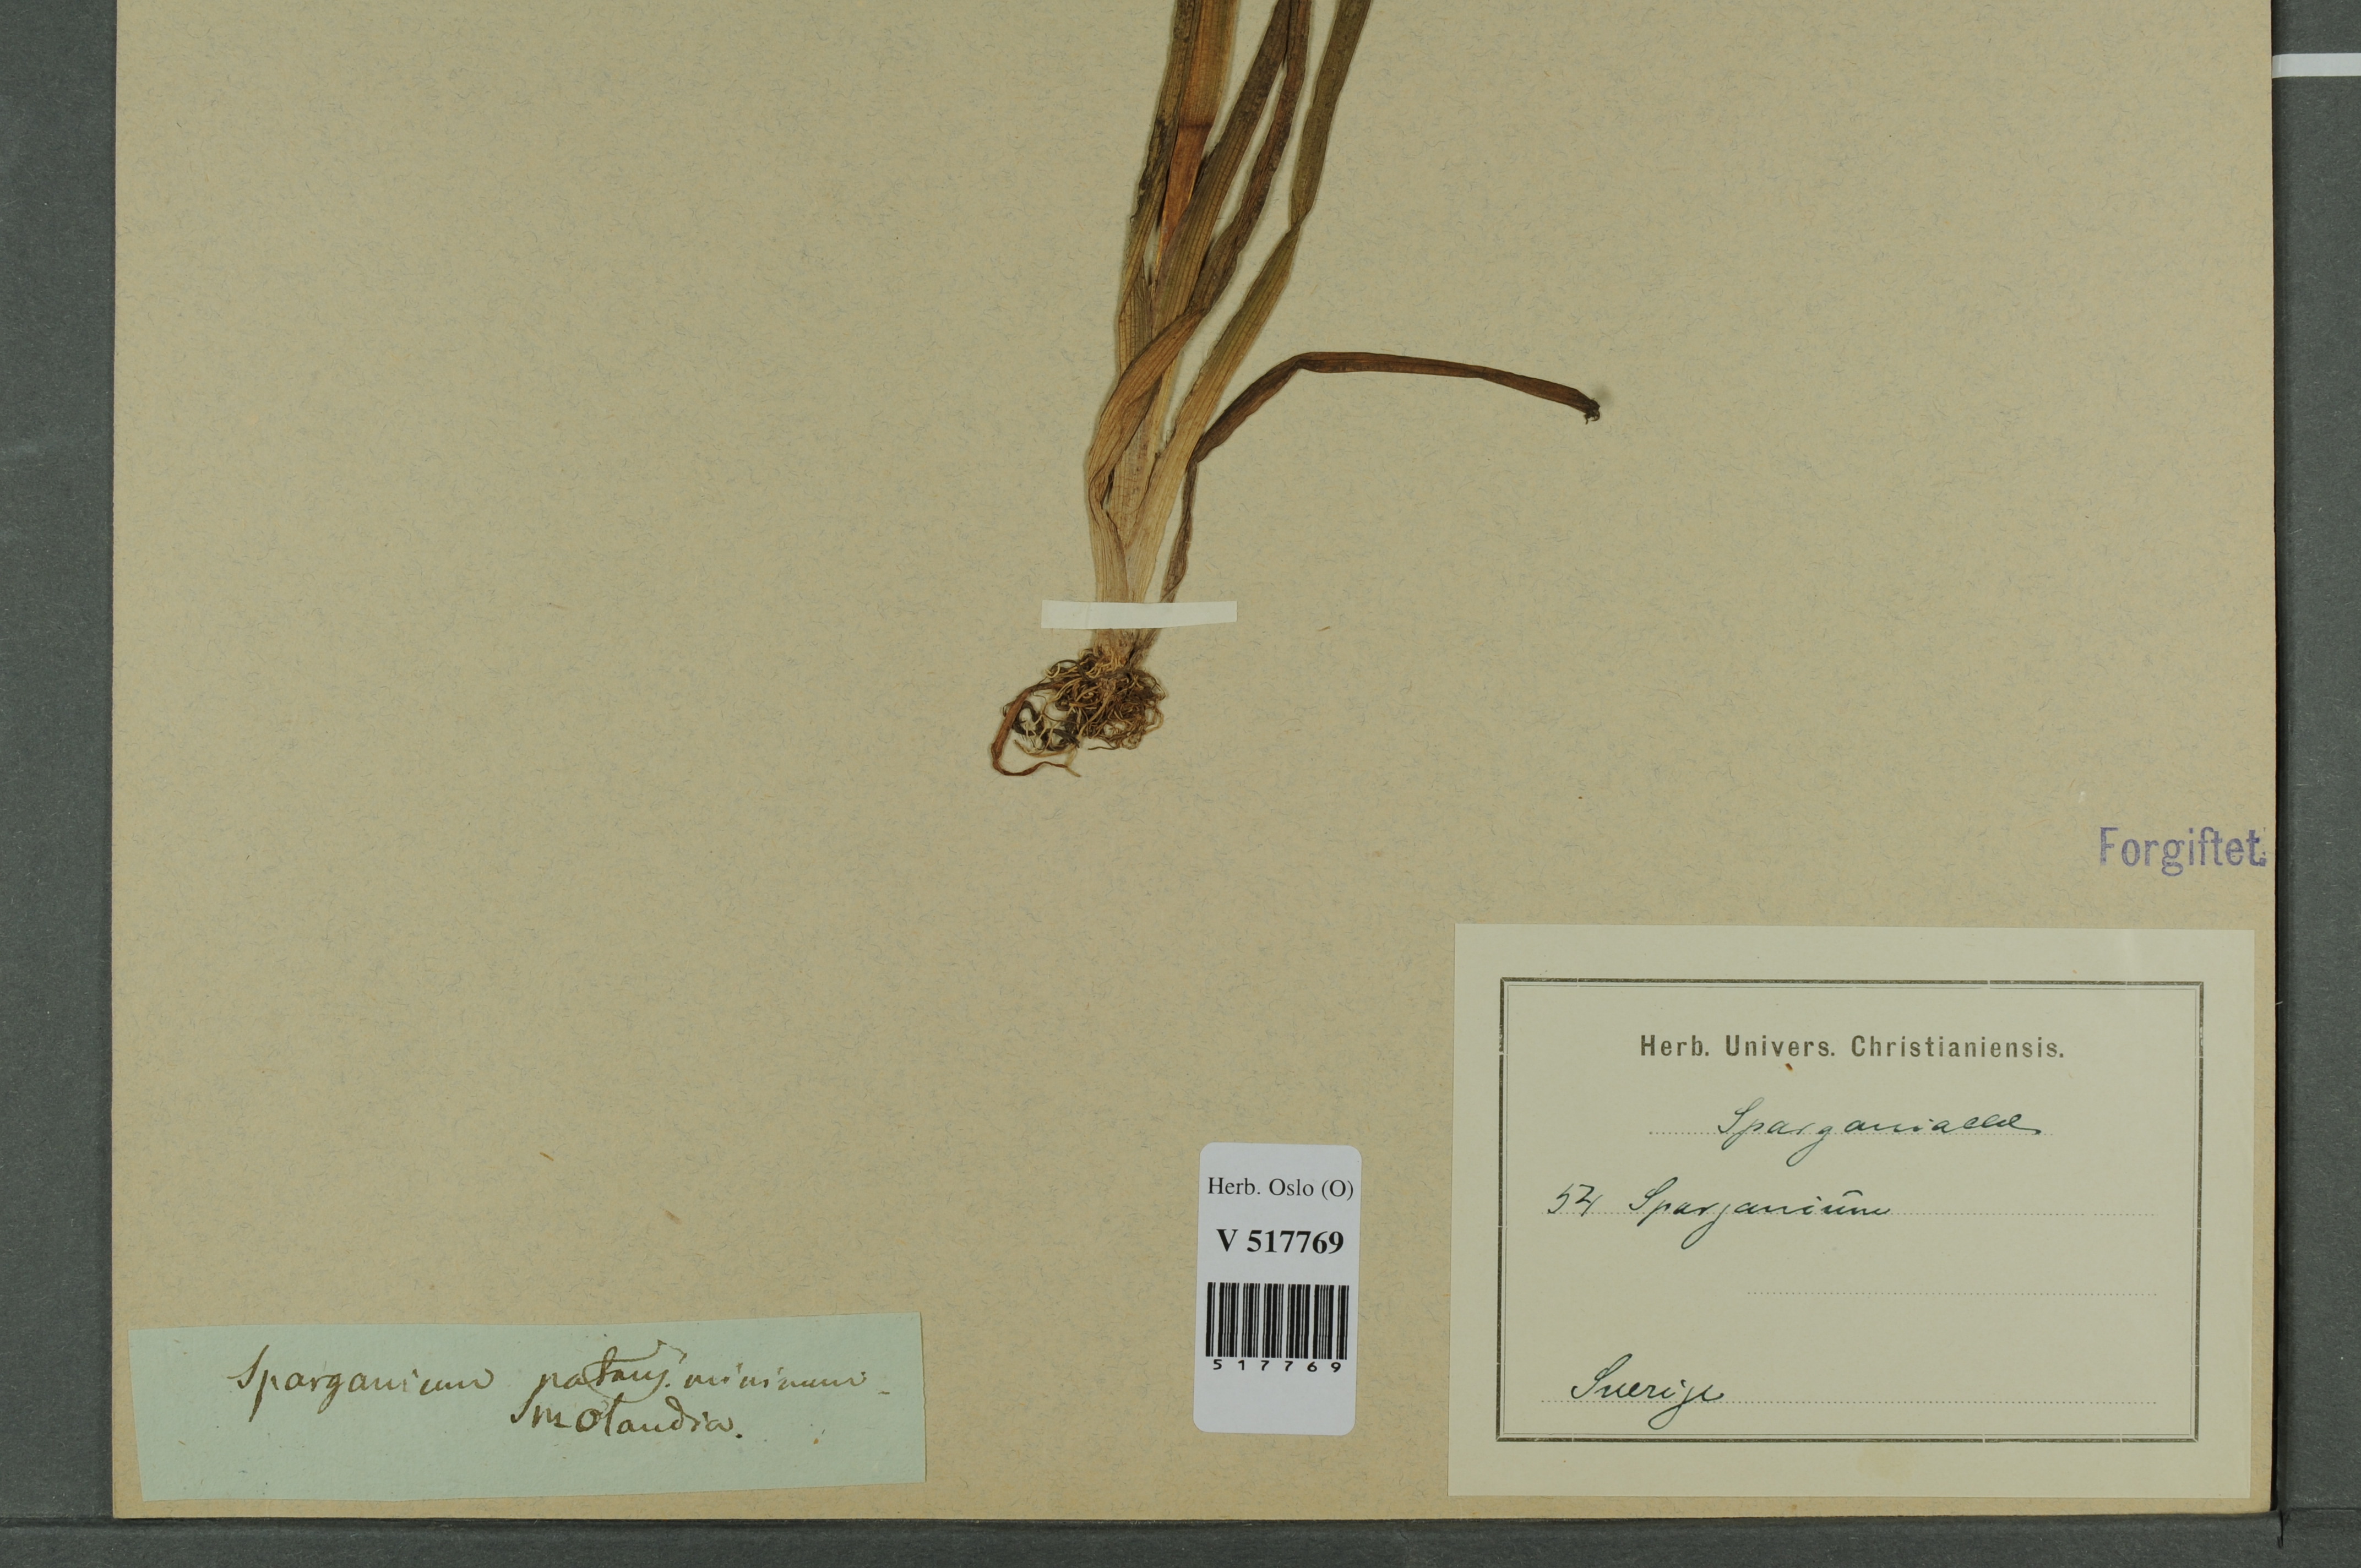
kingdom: Plantae
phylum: Tracheophyta
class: Liliopsida
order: Poales
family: Typhaceae
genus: Sparganium
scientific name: Sparganium natans
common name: Least bur-reed
